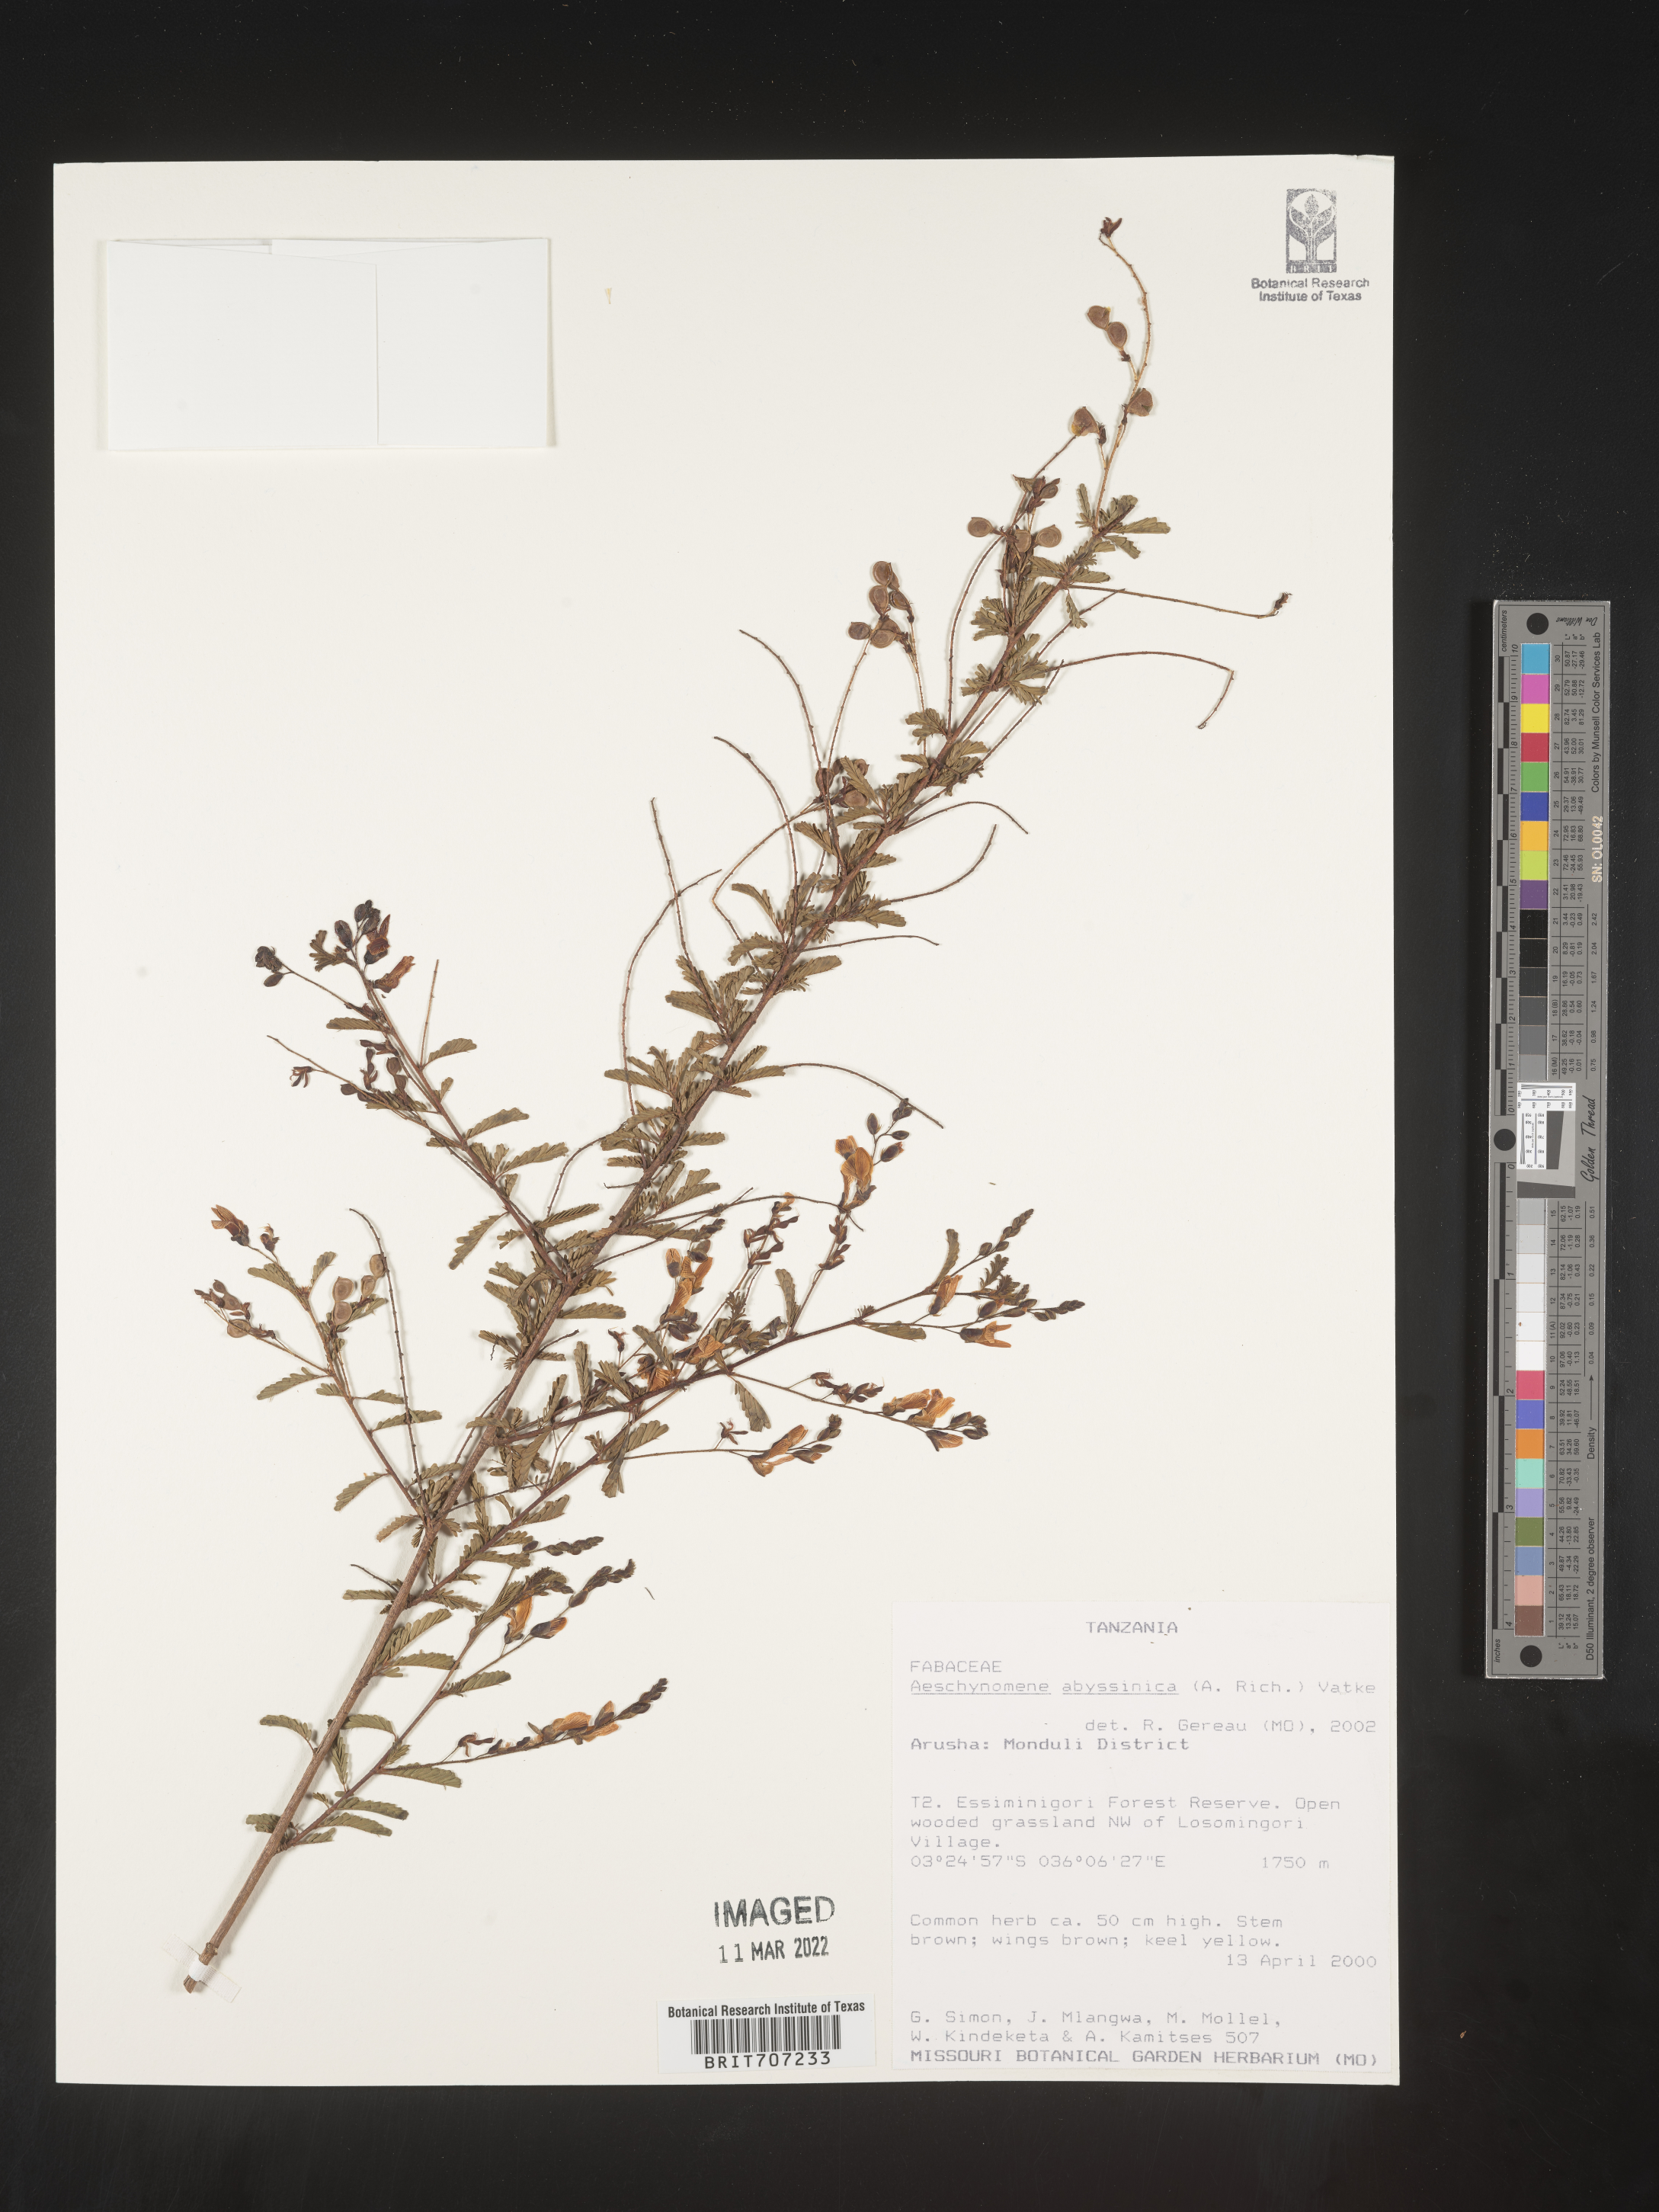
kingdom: Plantae
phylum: Tracheophyta
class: Magnoliopsida
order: Fabales
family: Fabaceae
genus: Aeschynomene
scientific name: Aeschynomene
